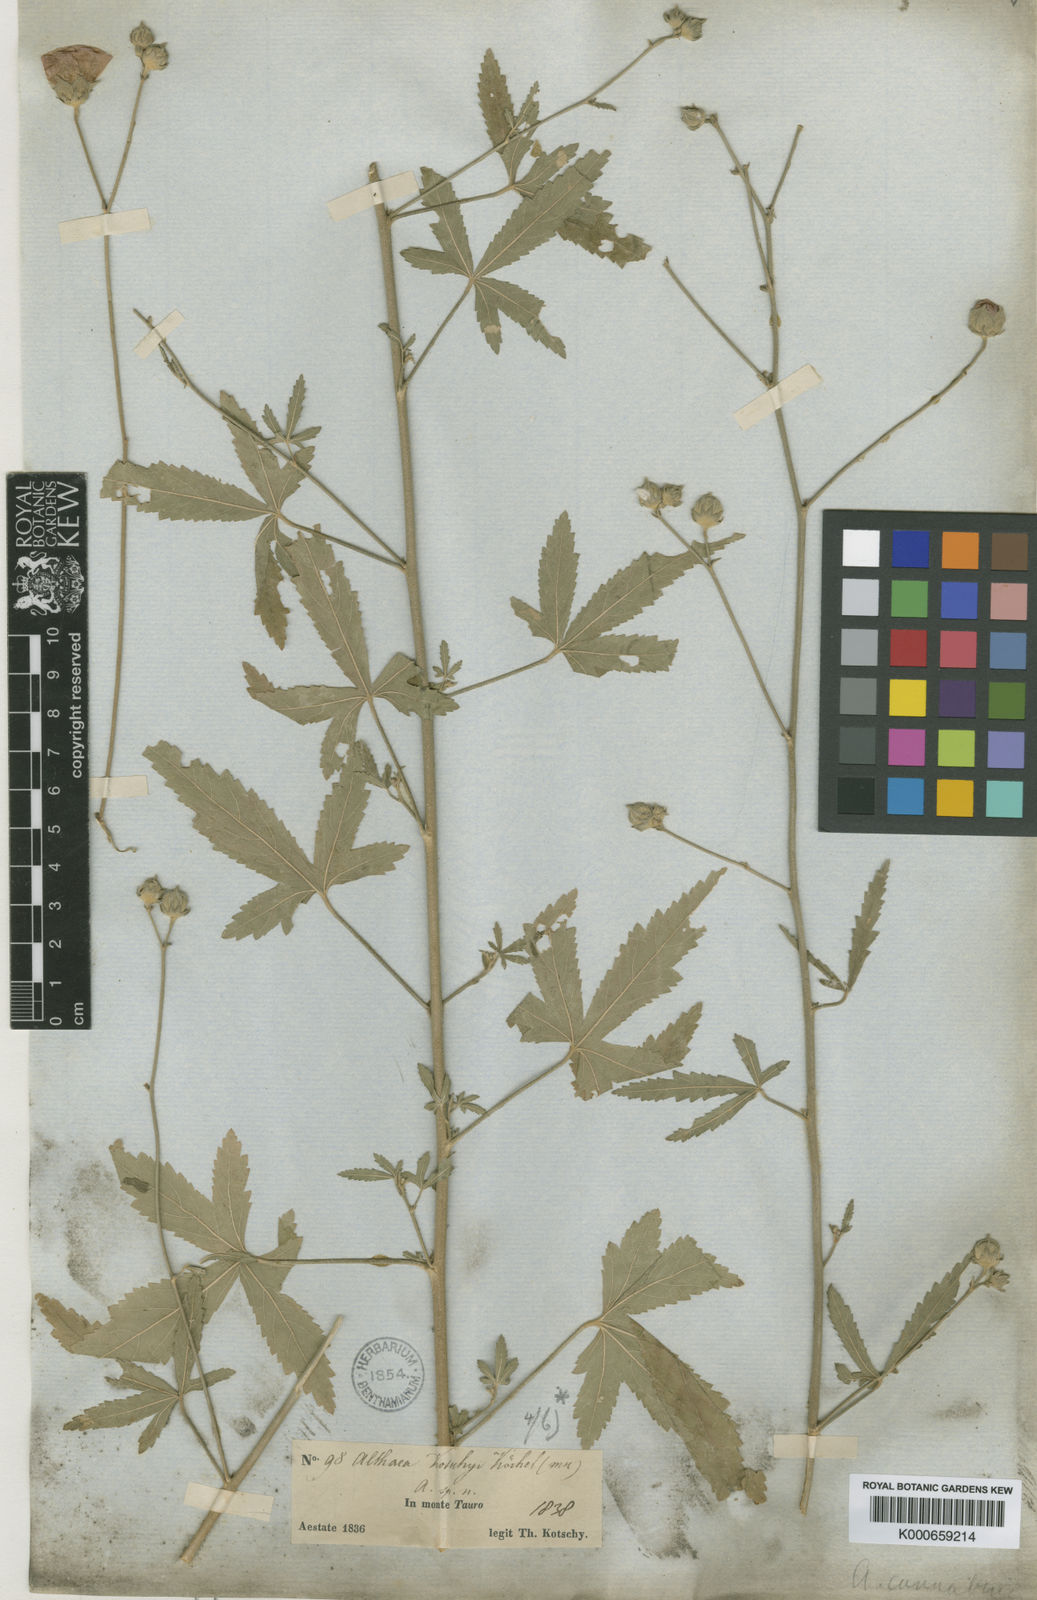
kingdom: Plantae
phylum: Tracheophyta
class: Magnoliopsida
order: Malvales
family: Malvaceae
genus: Althaea
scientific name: Althaea
